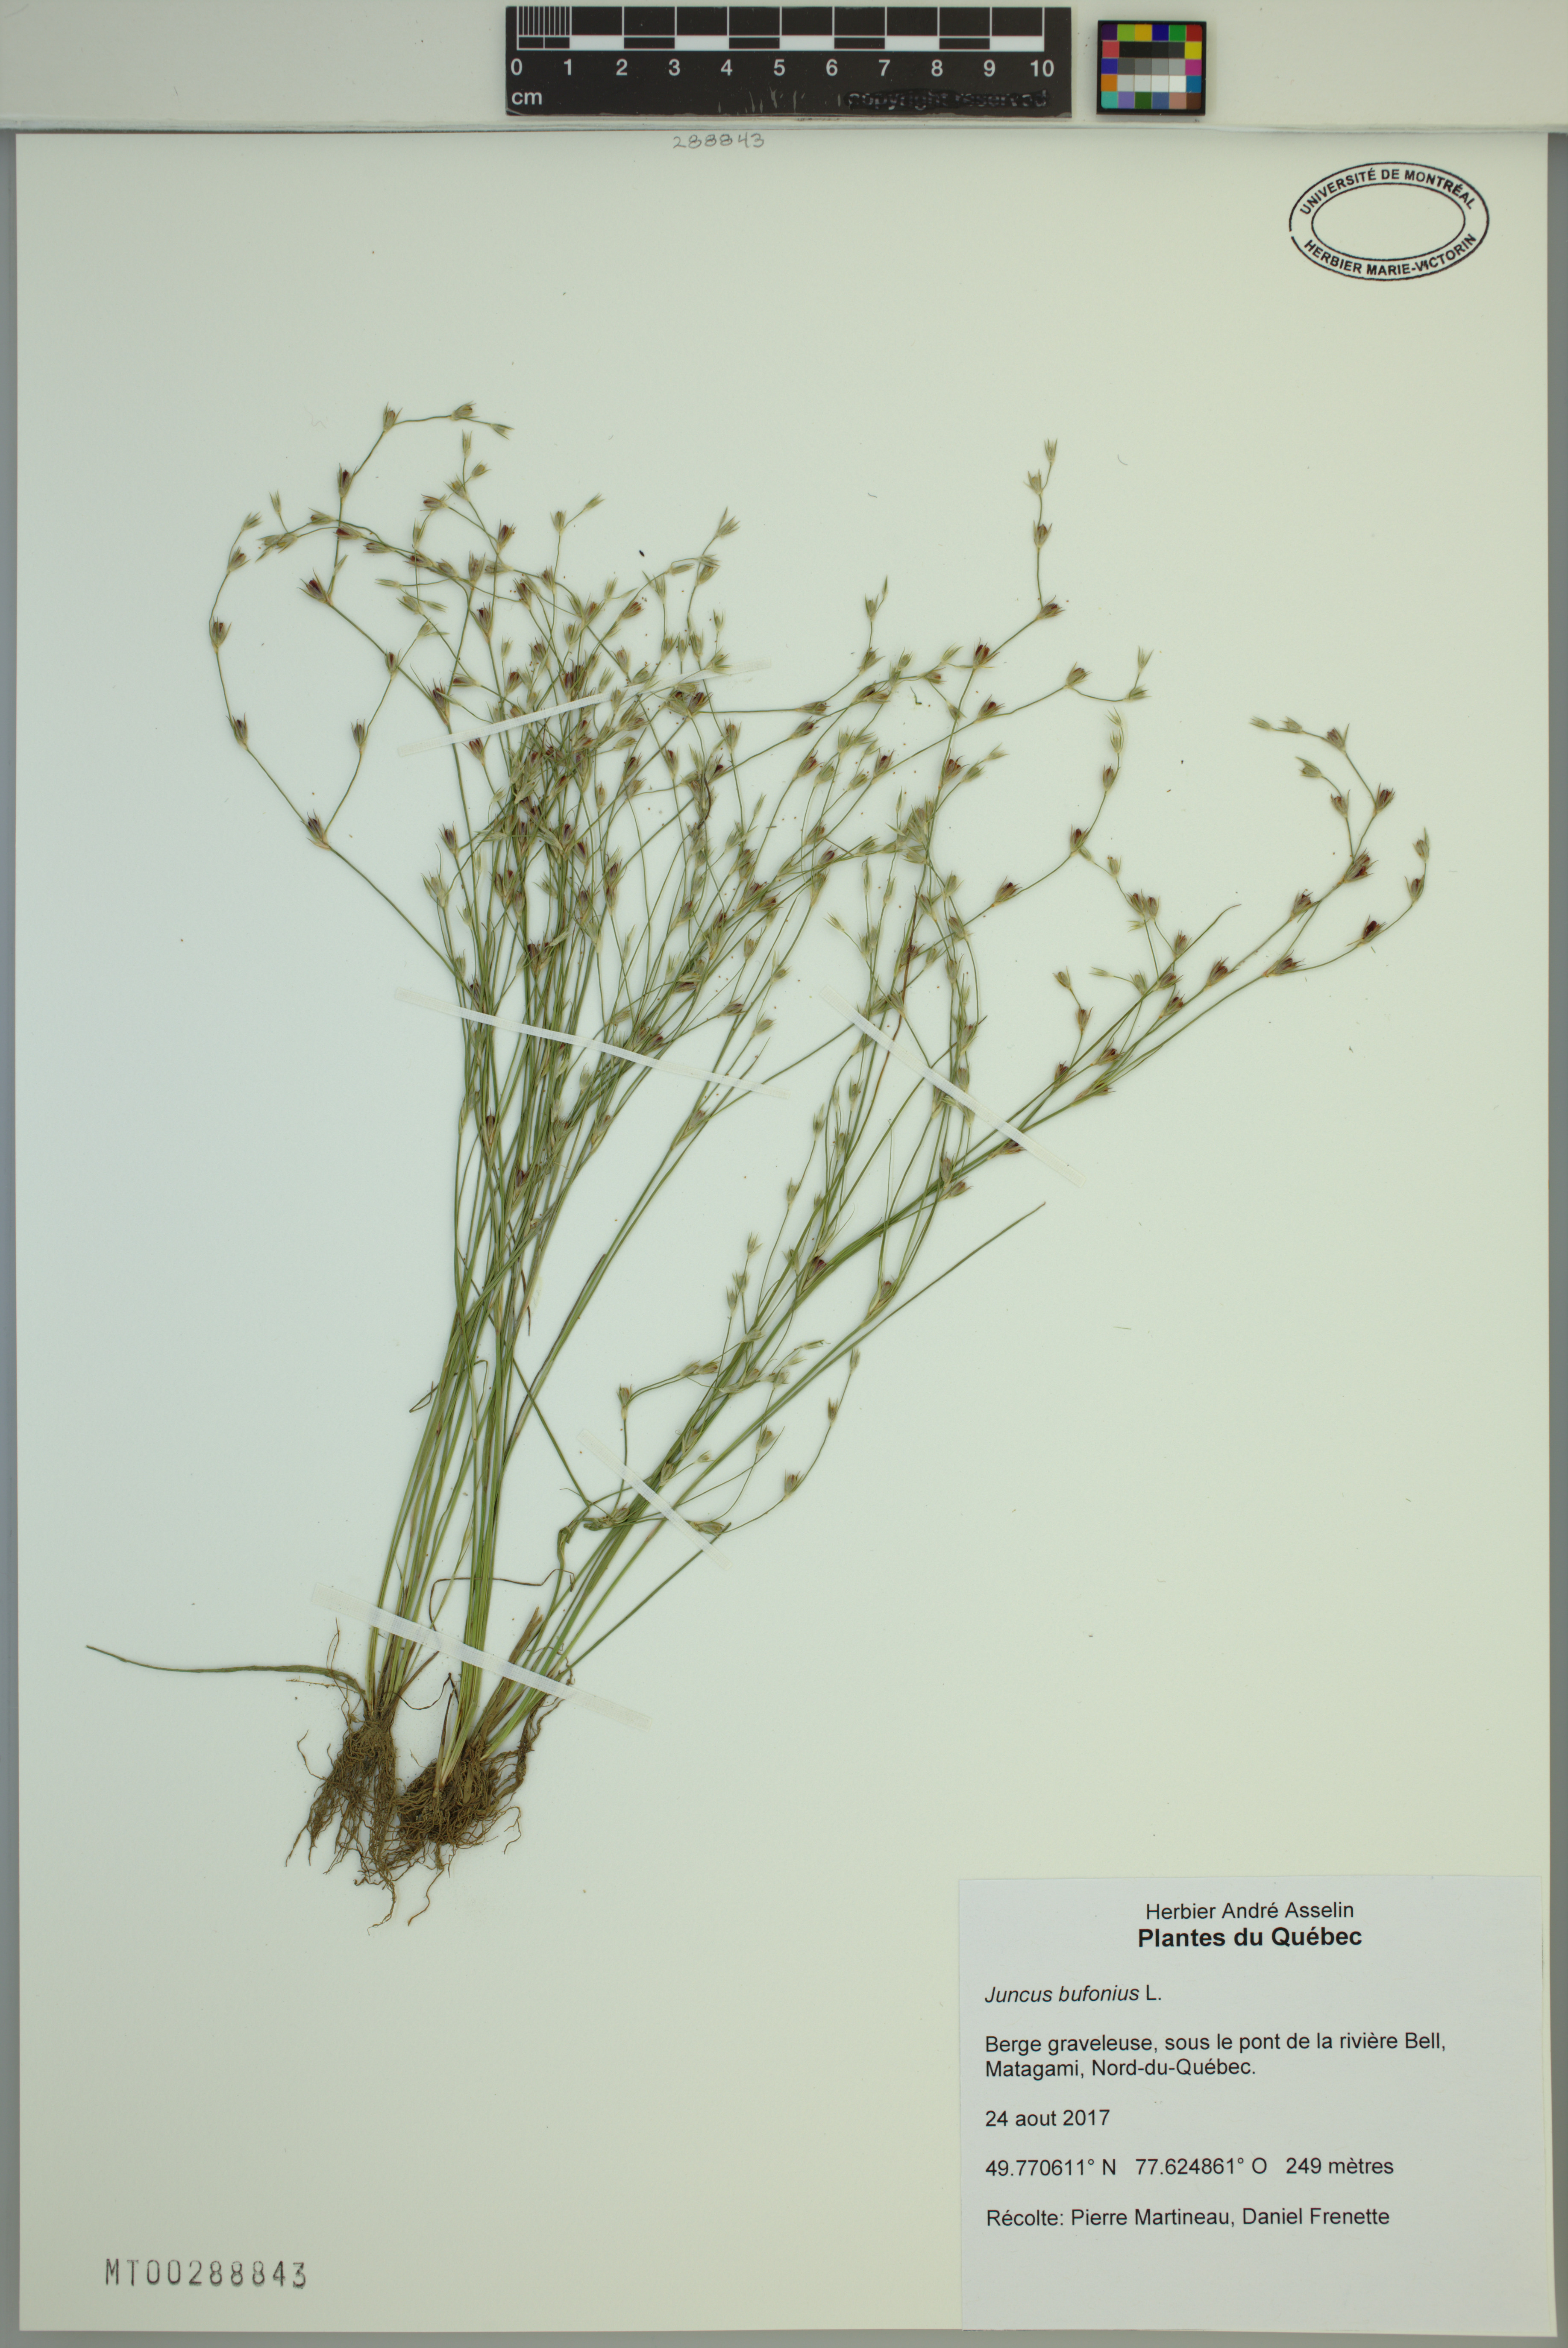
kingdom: Plantae
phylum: Tracheophyta
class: Liliopsida
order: Poales
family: Juncaceae
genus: Juncus
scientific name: Juncus bufonius
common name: Toad rush
